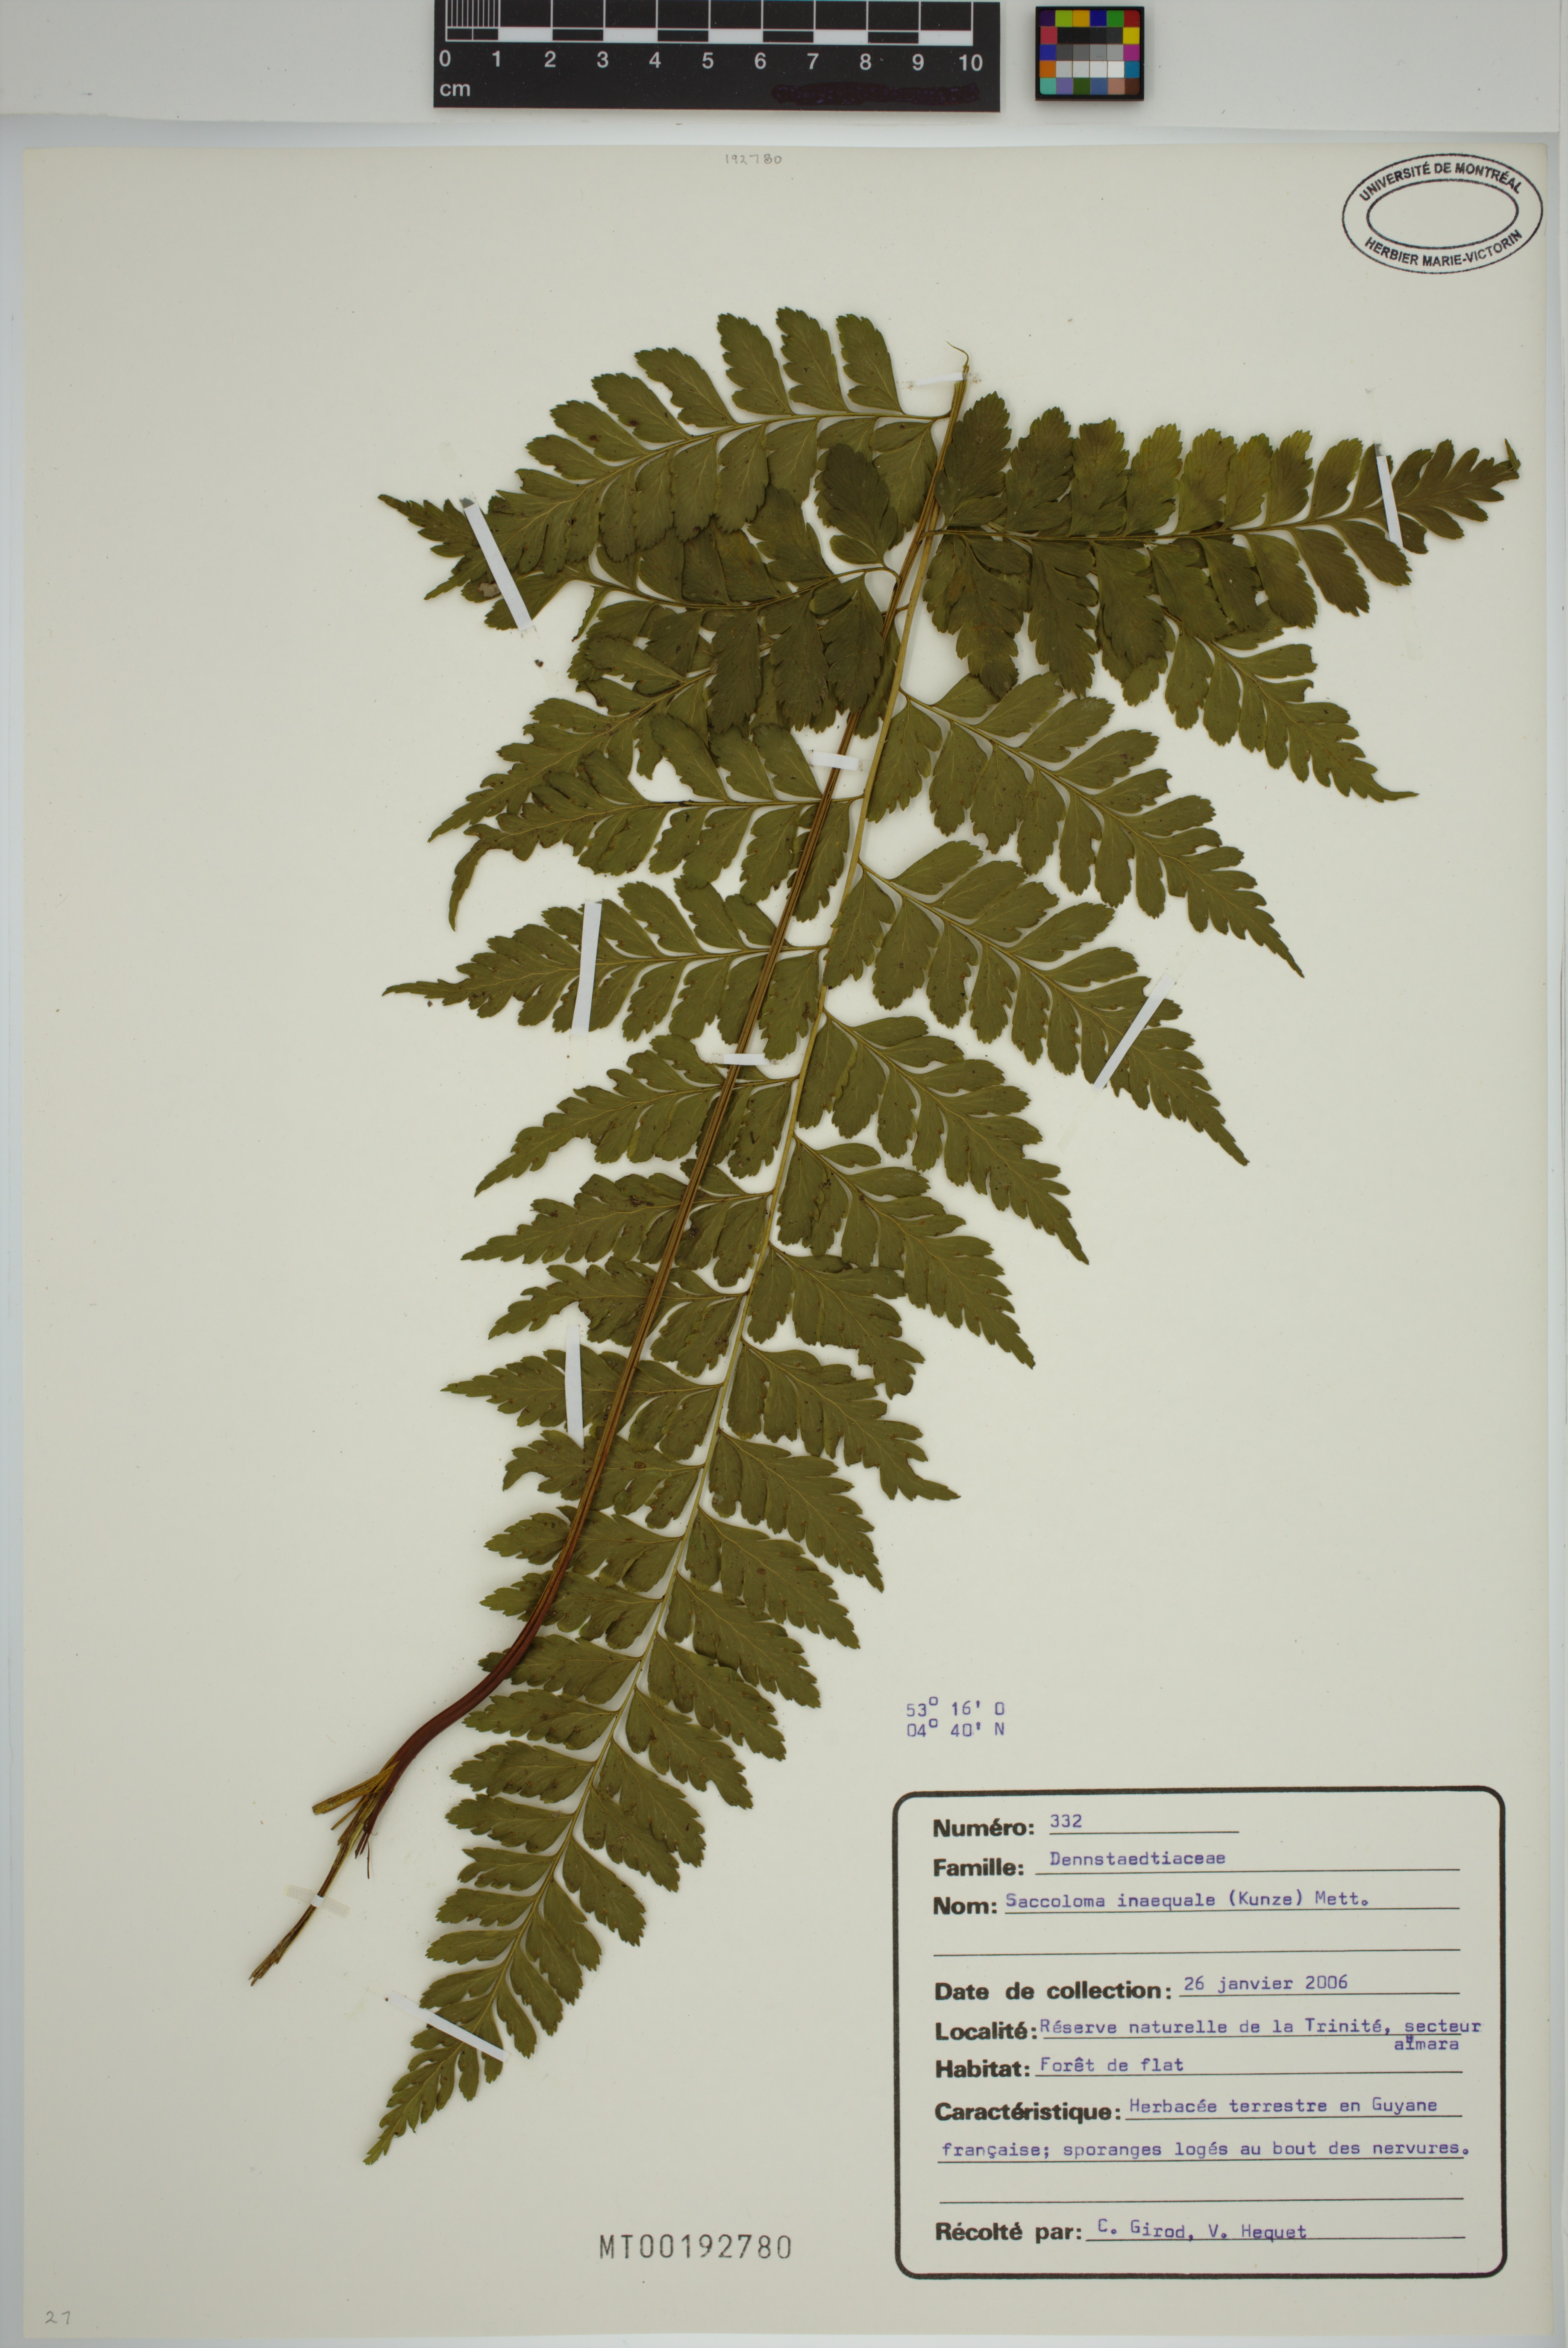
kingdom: Plantae
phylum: Tracheophyta
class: Polypodiopsida
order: Polypodiales
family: Saccolomataceae
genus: Saccoloma
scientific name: Saccoloma inaequale
